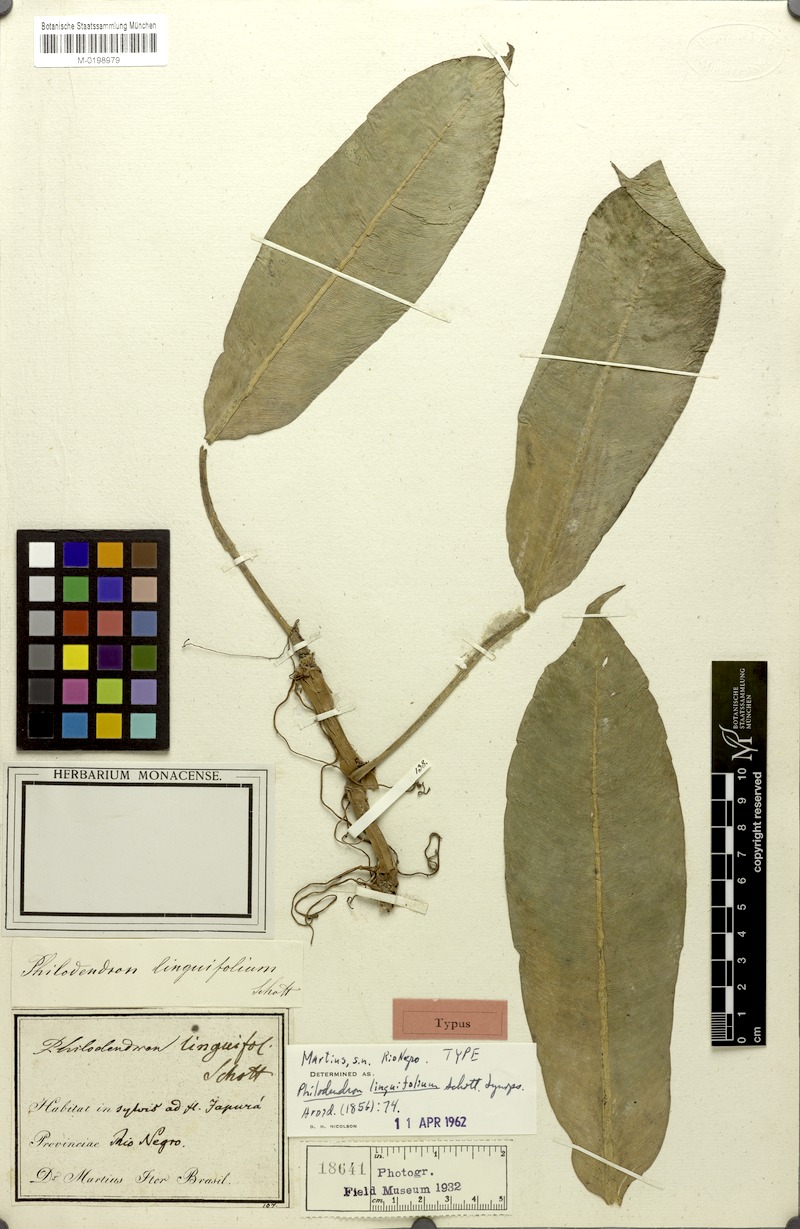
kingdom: Plantae
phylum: Tracheophyta
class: Liliopsida
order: Alismatales
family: Araceae
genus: Philodendron
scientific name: Philodendron linguifolium
